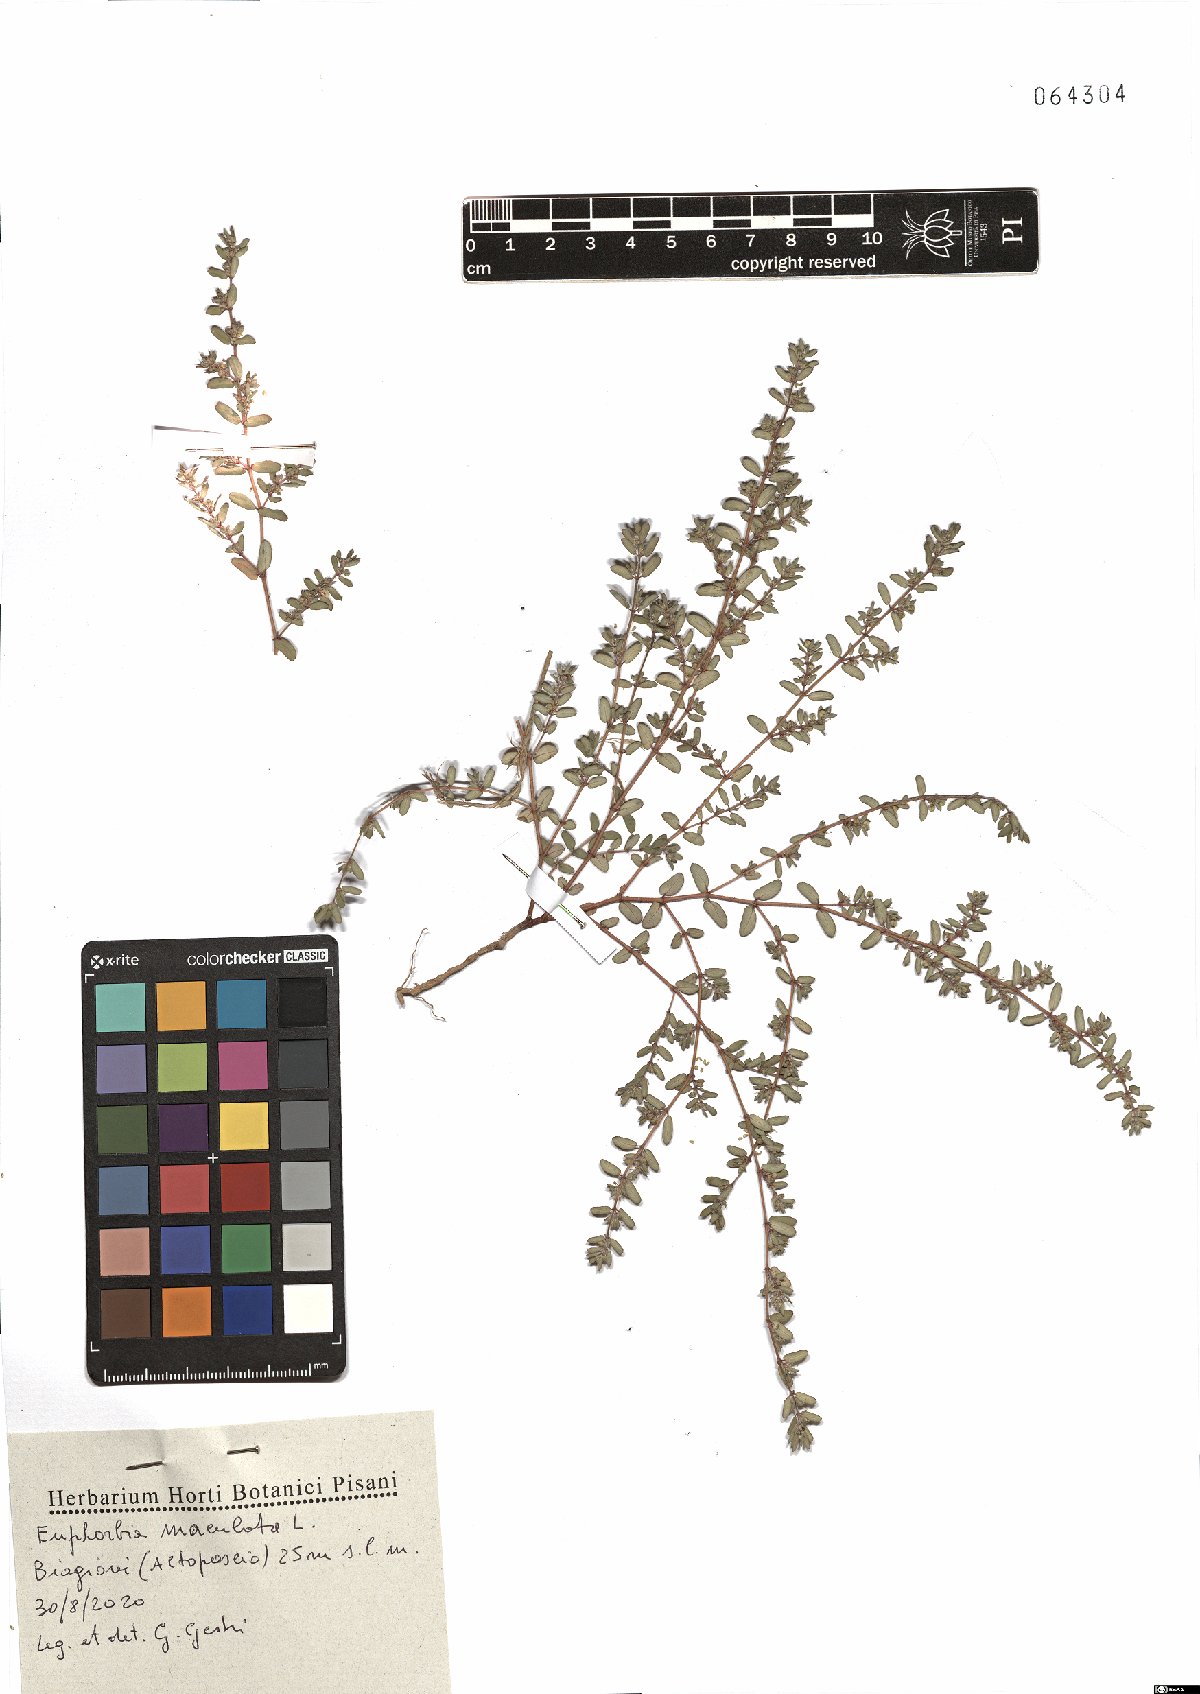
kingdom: Plantae
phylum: Tracheophyta
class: Magnoliopsida
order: Malpighiales
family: Euphorbiaceae
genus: Euphorbia
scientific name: Euphorbia maculata
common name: Spotted spurge
